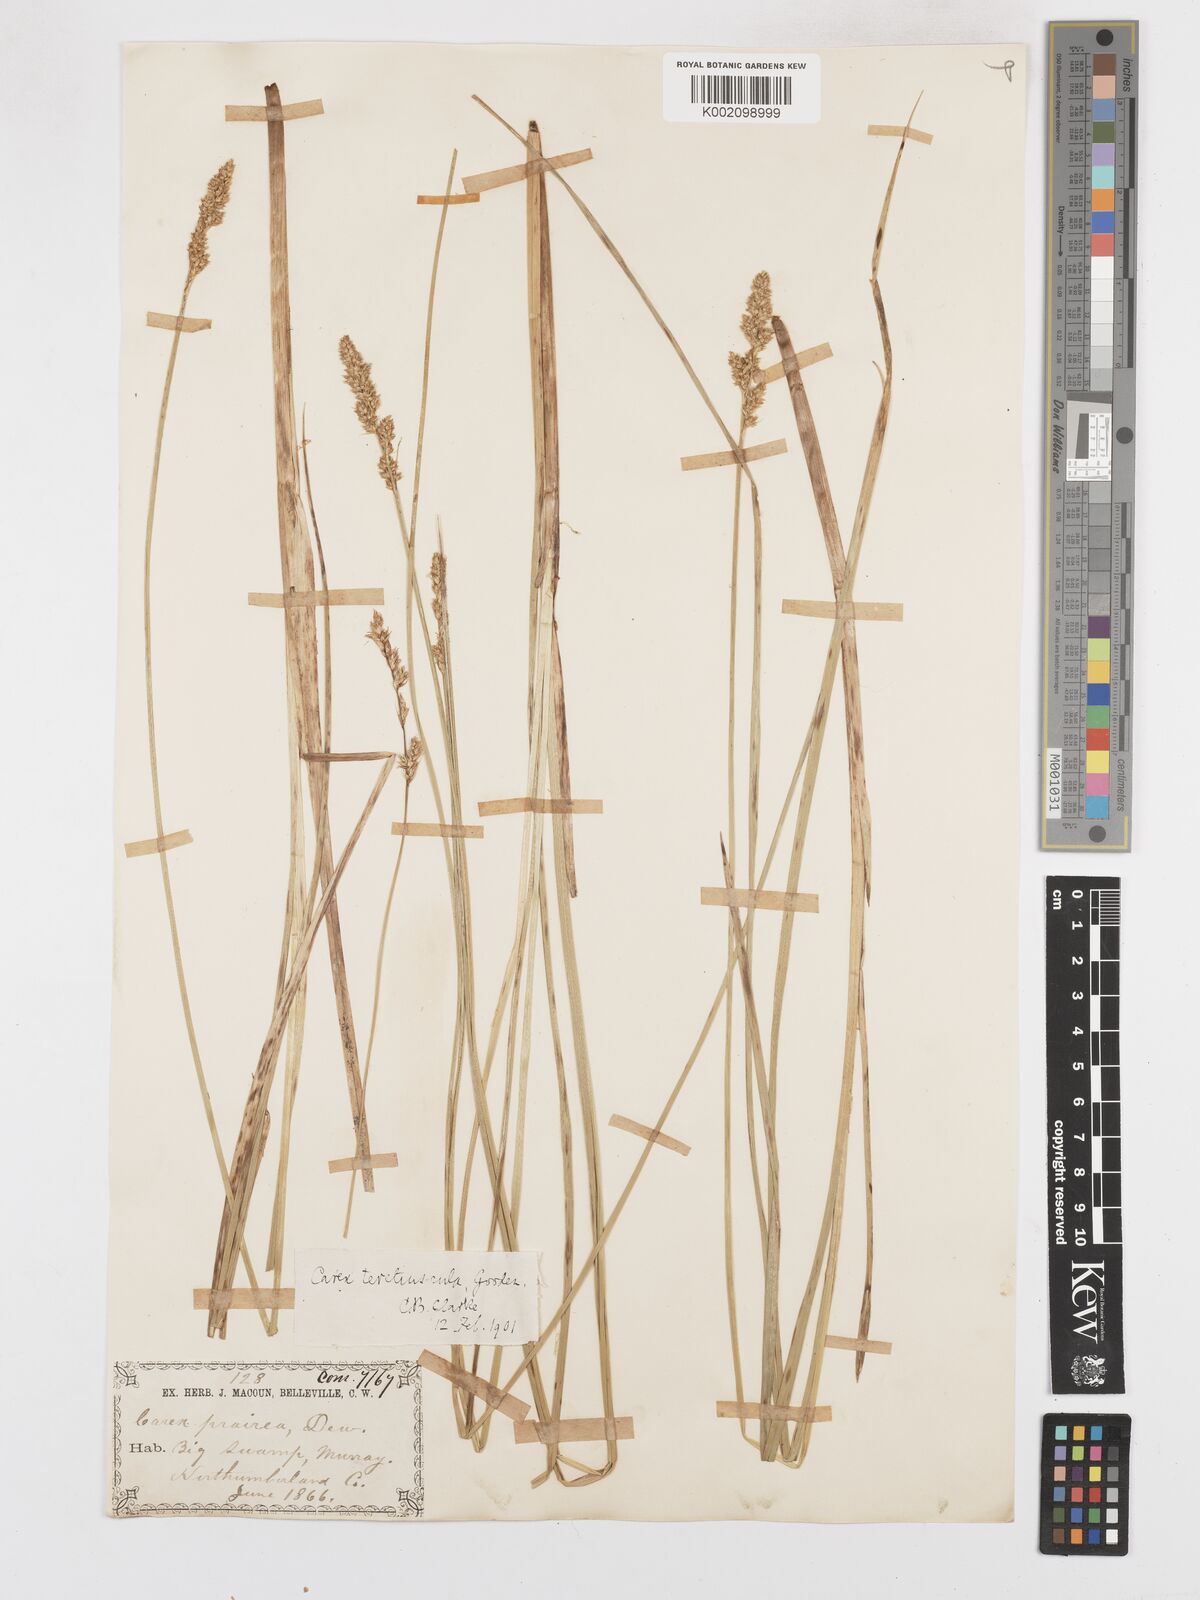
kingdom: Plantae
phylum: Tracheophyta
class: Liliopsida
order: Poales
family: Cyperaceae
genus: Carex
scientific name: Carex diandra
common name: Lesser tussock-sedge
